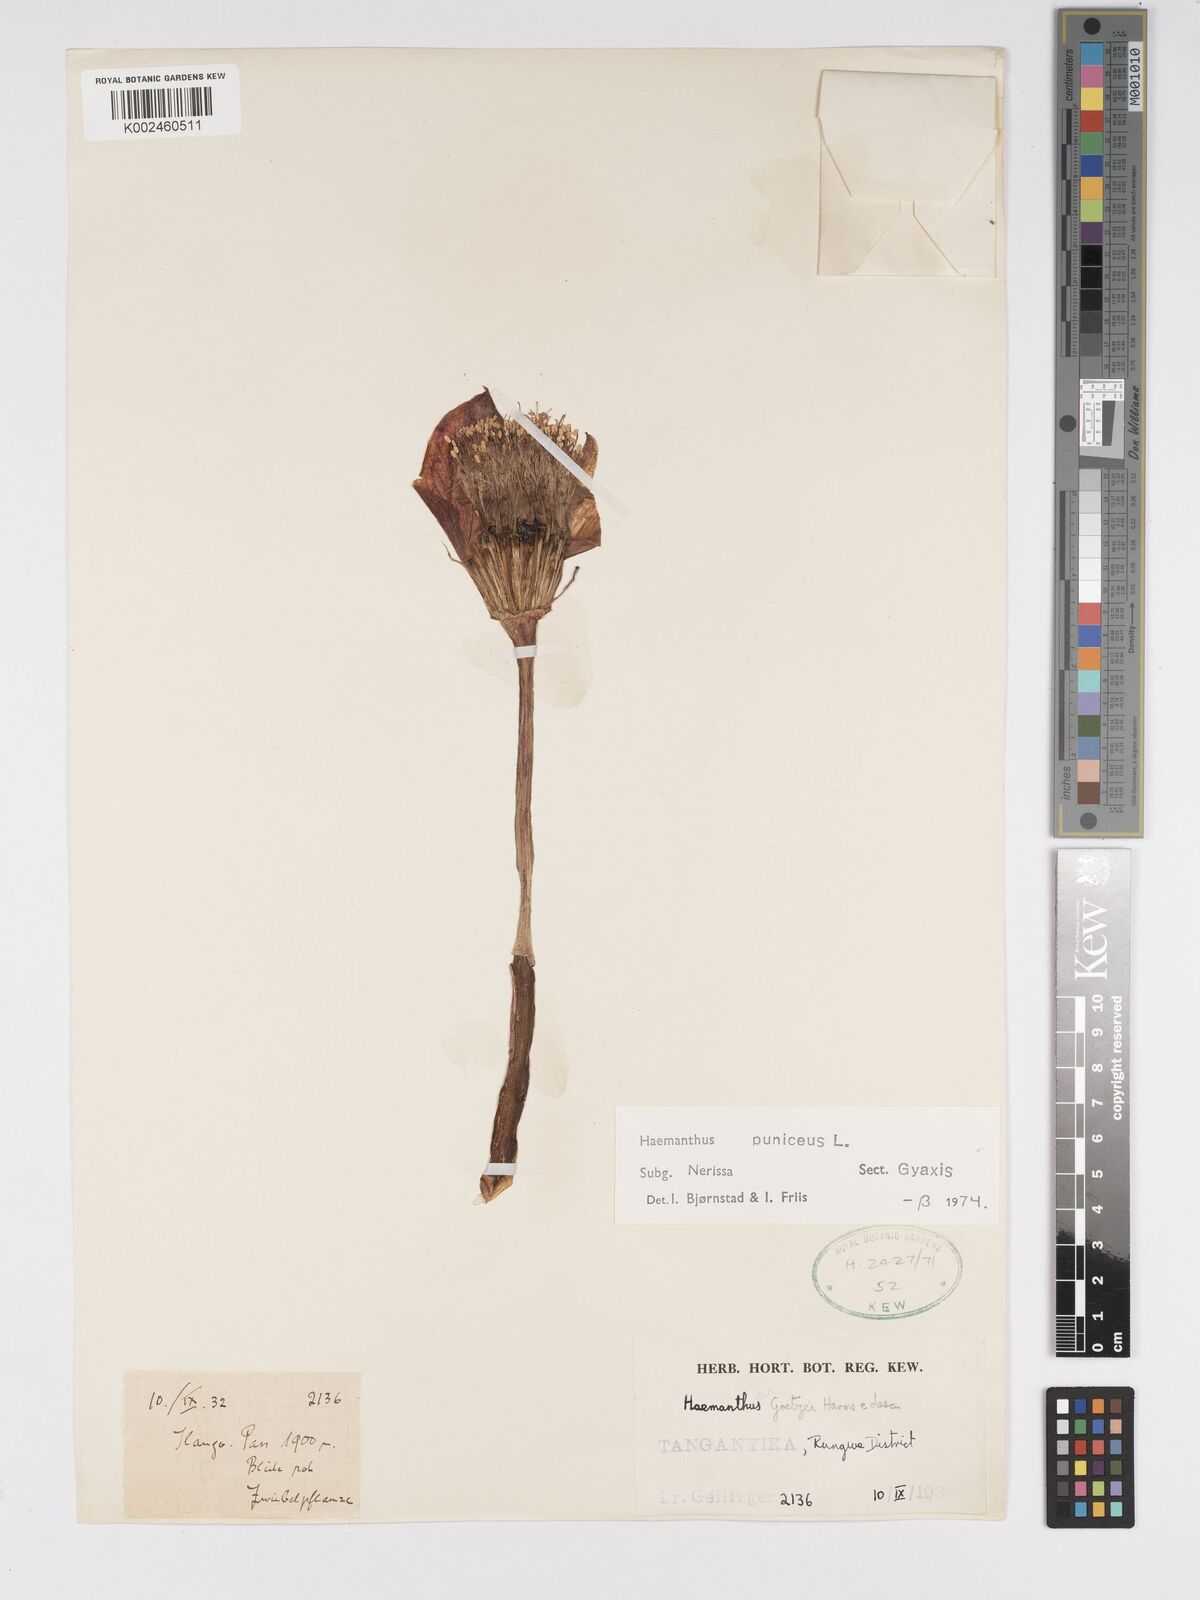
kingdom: Plantae
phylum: Tracheophyta
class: Liliopsida
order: Asparagales
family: Amaryllidaceae
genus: Scadoxus
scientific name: Scadoxus puniceus
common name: Royal-paintbrush
